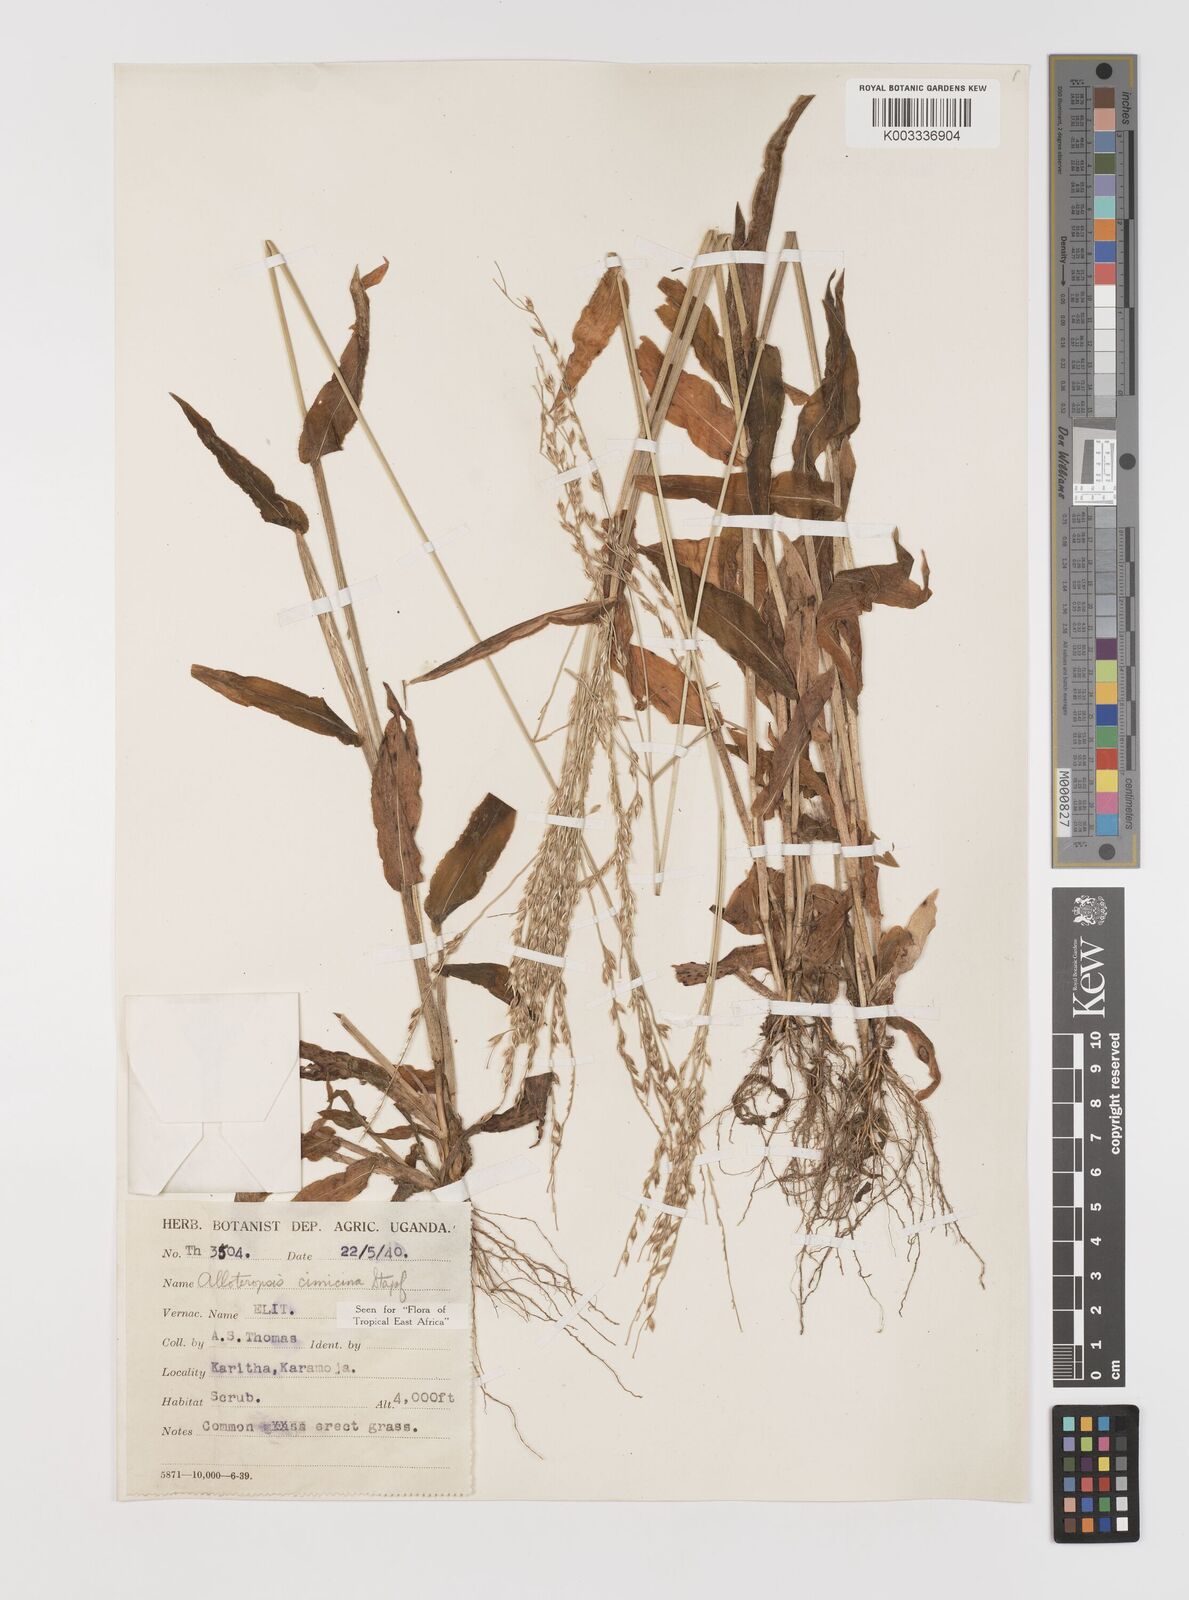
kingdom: Plantae
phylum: Tracheophyta
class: Liliopsida
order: Poales
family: Poaceae
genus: Alloteropsis
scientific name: Alloteropsis cimicina
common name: Summergrass
